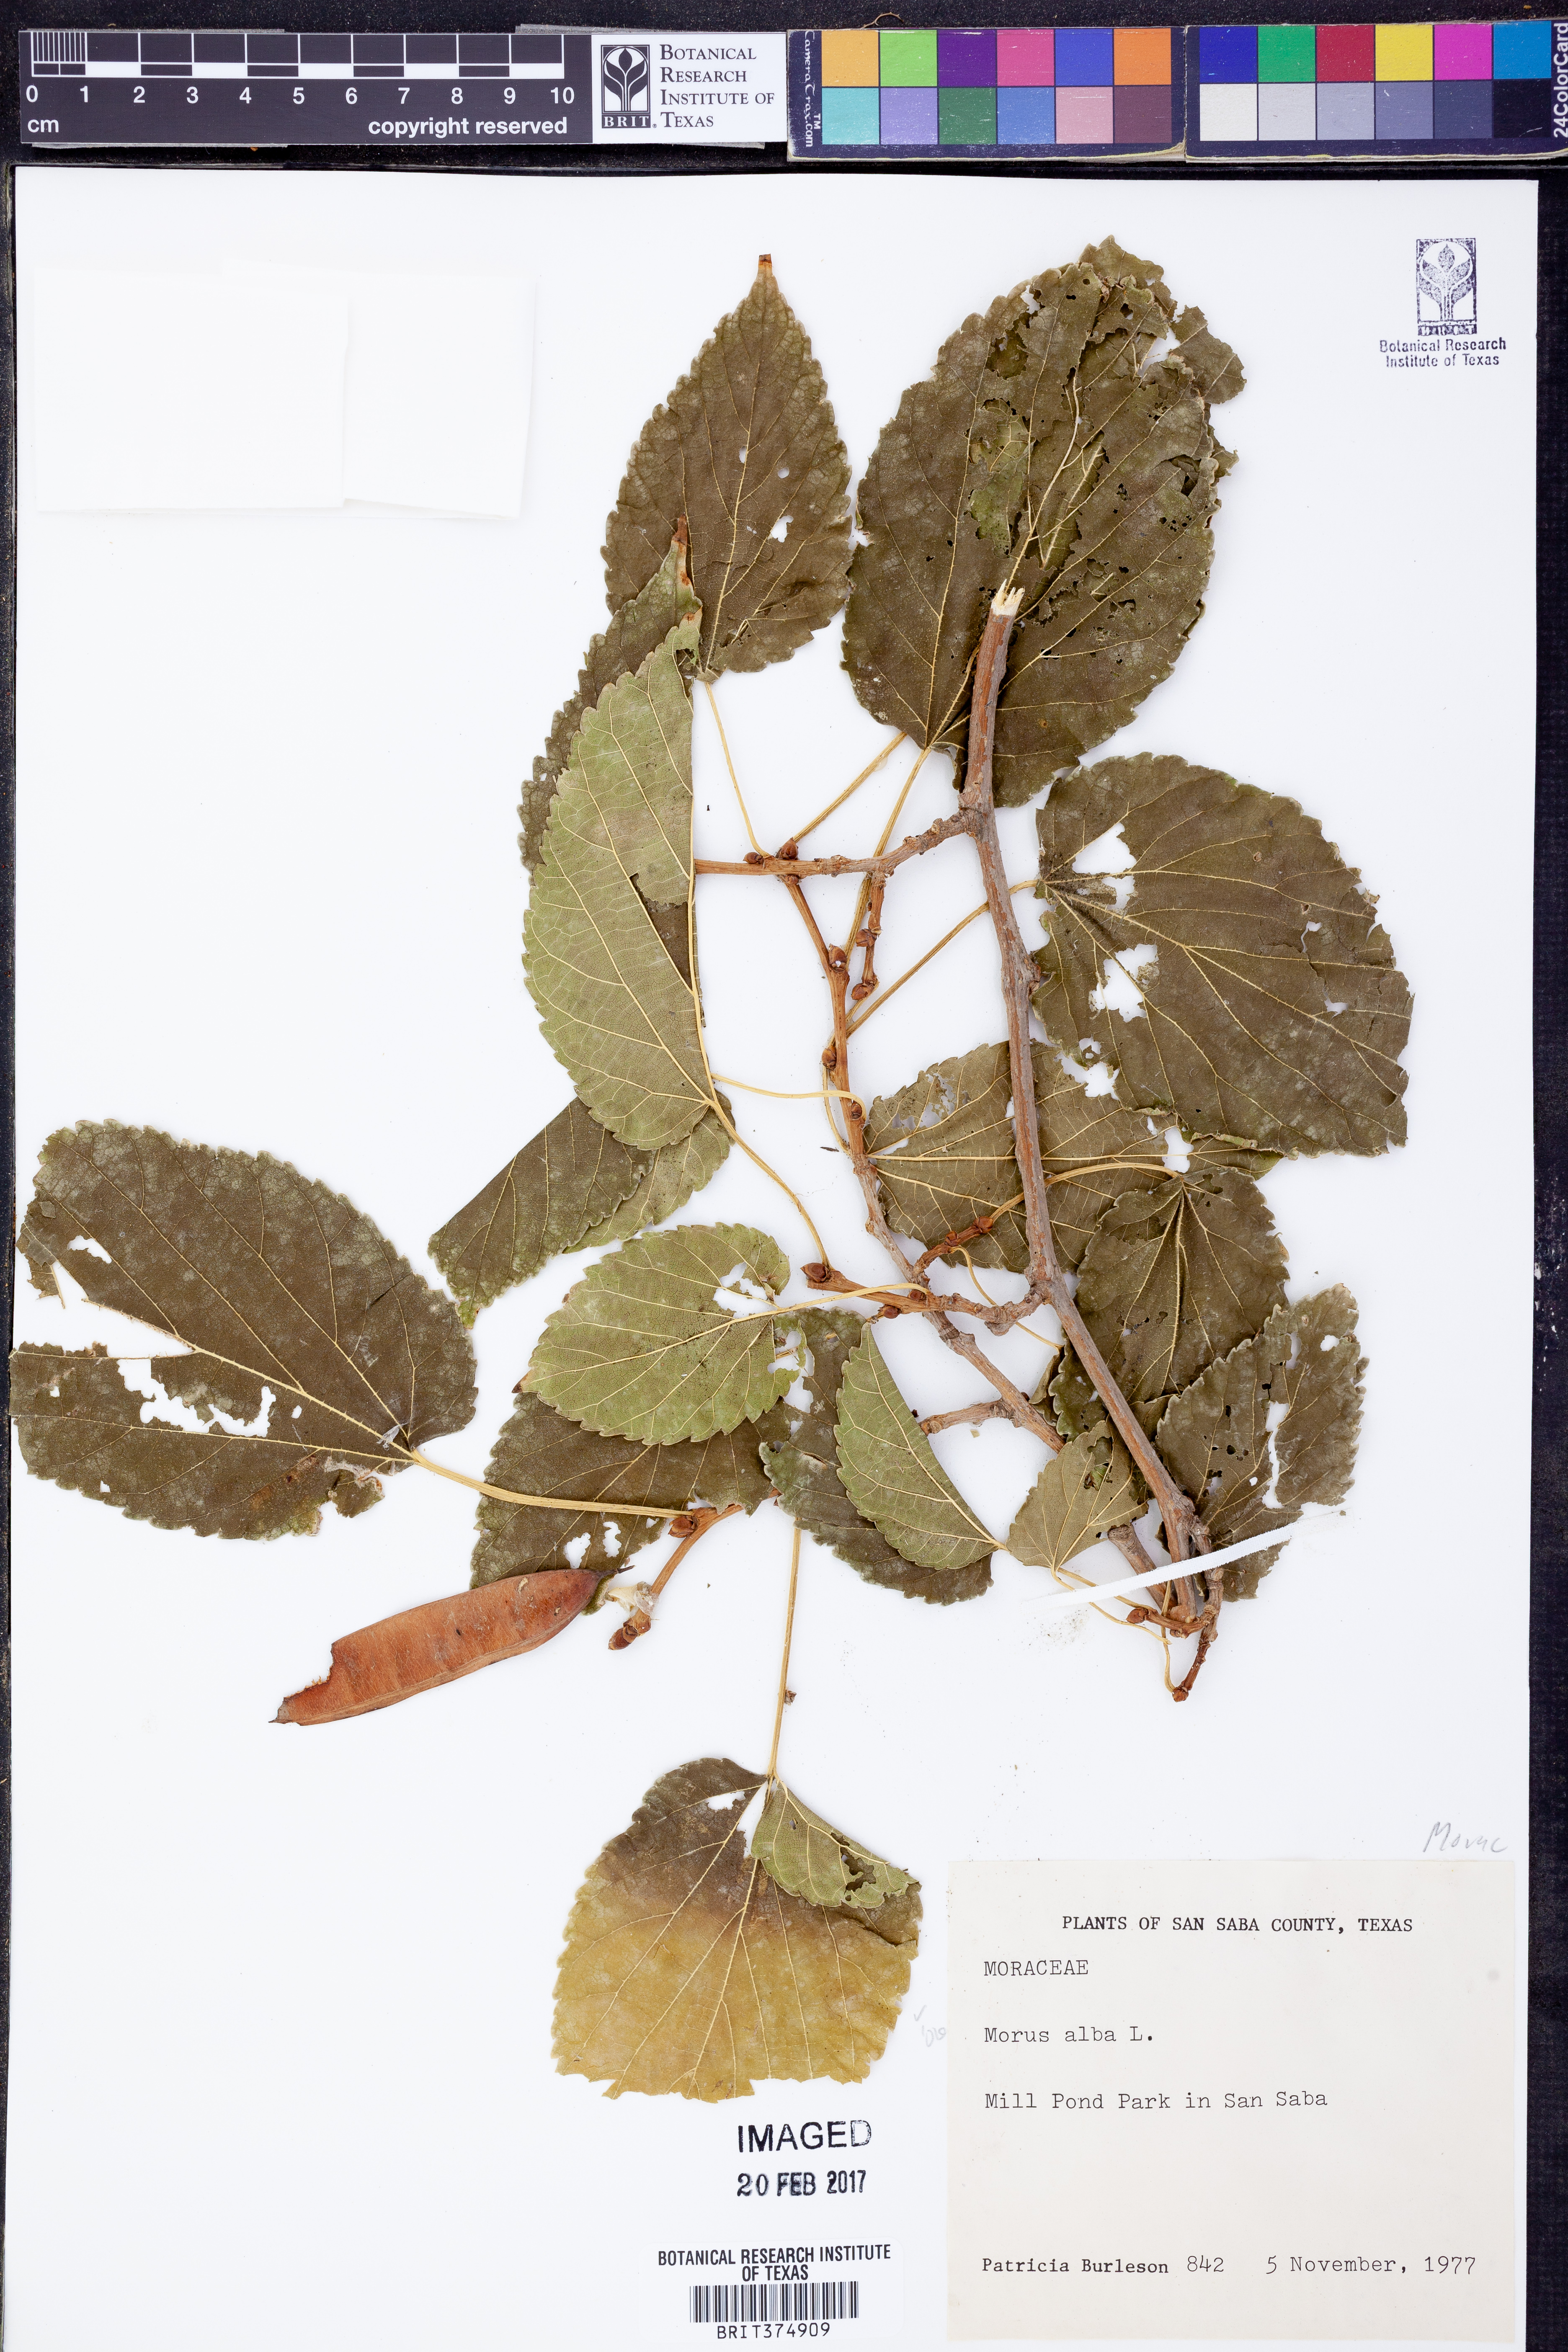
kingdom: Plantae
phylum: Tracheophyta
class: Magnoliopsida
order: Rosales
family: Moraceae
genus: Morus
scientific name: Morus alba
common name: White mulberry
